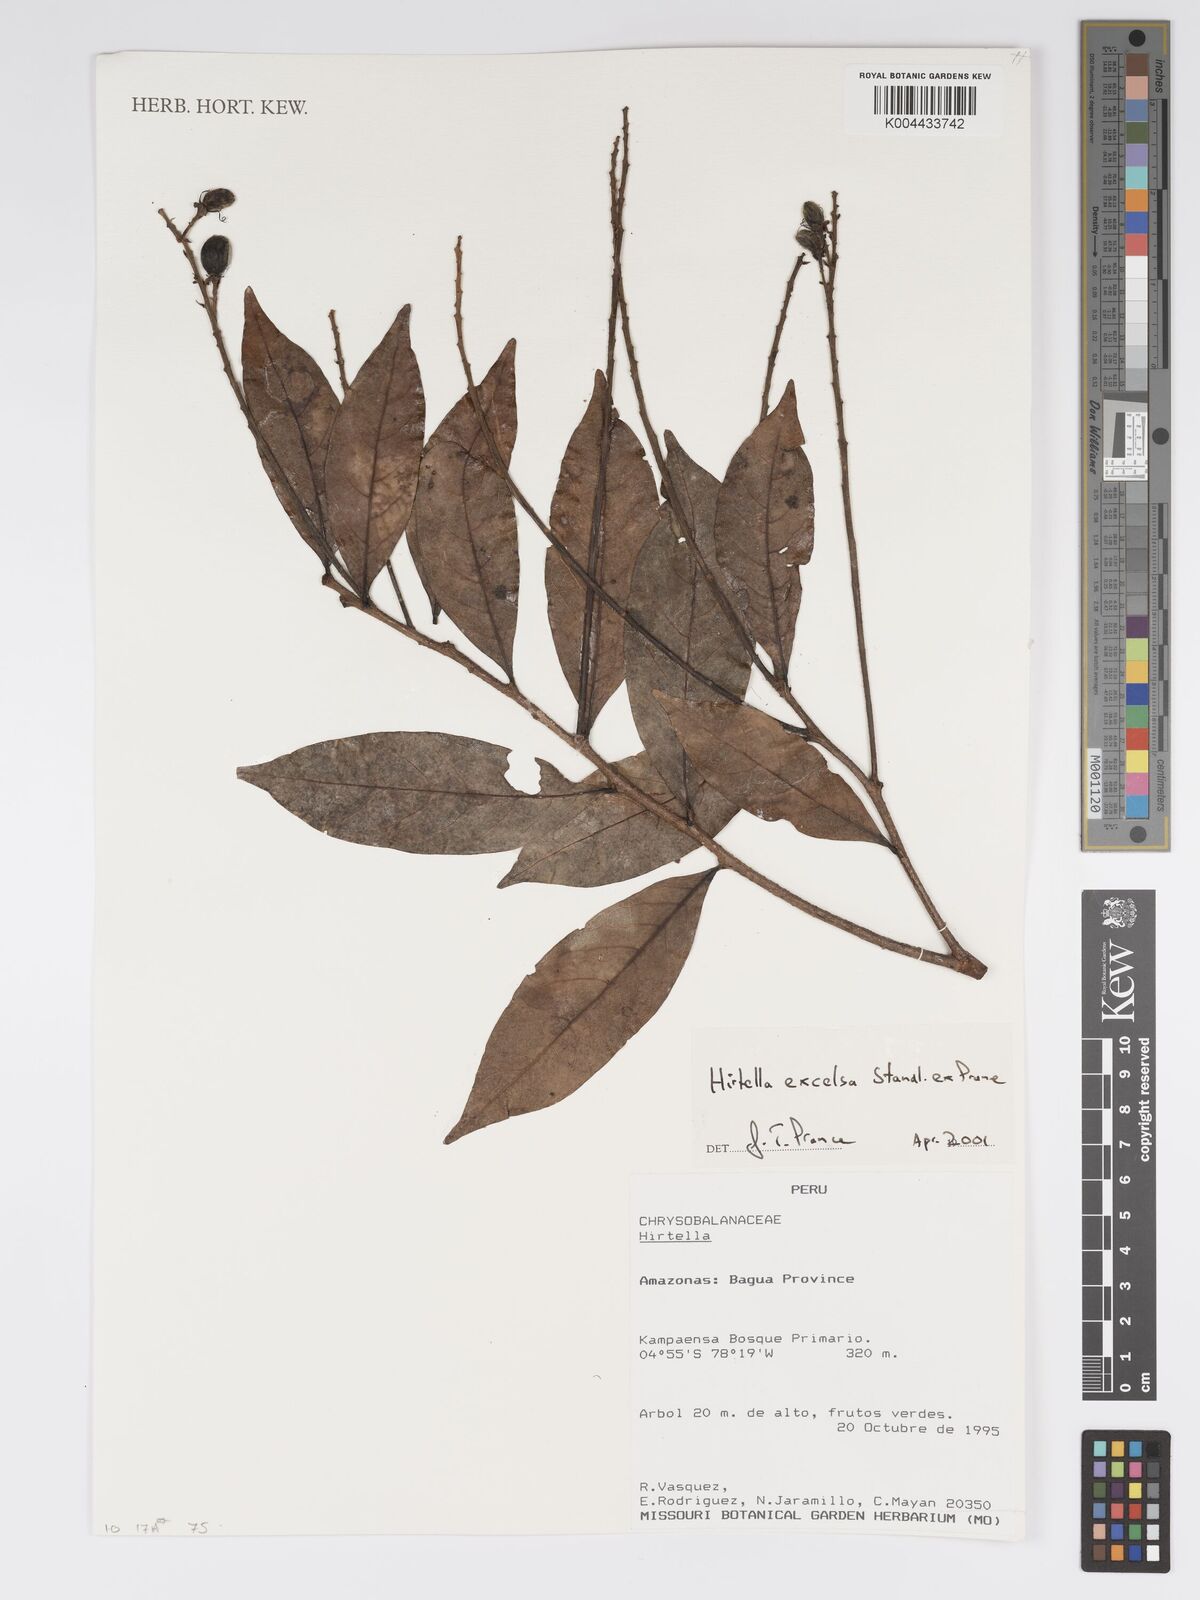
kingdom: Plantae
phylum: Tracheophyta
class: Magnoliopsida
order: Malpighiales
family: Chrysobalanaceae
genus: Hirtella
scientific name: Hirtella excelsa
